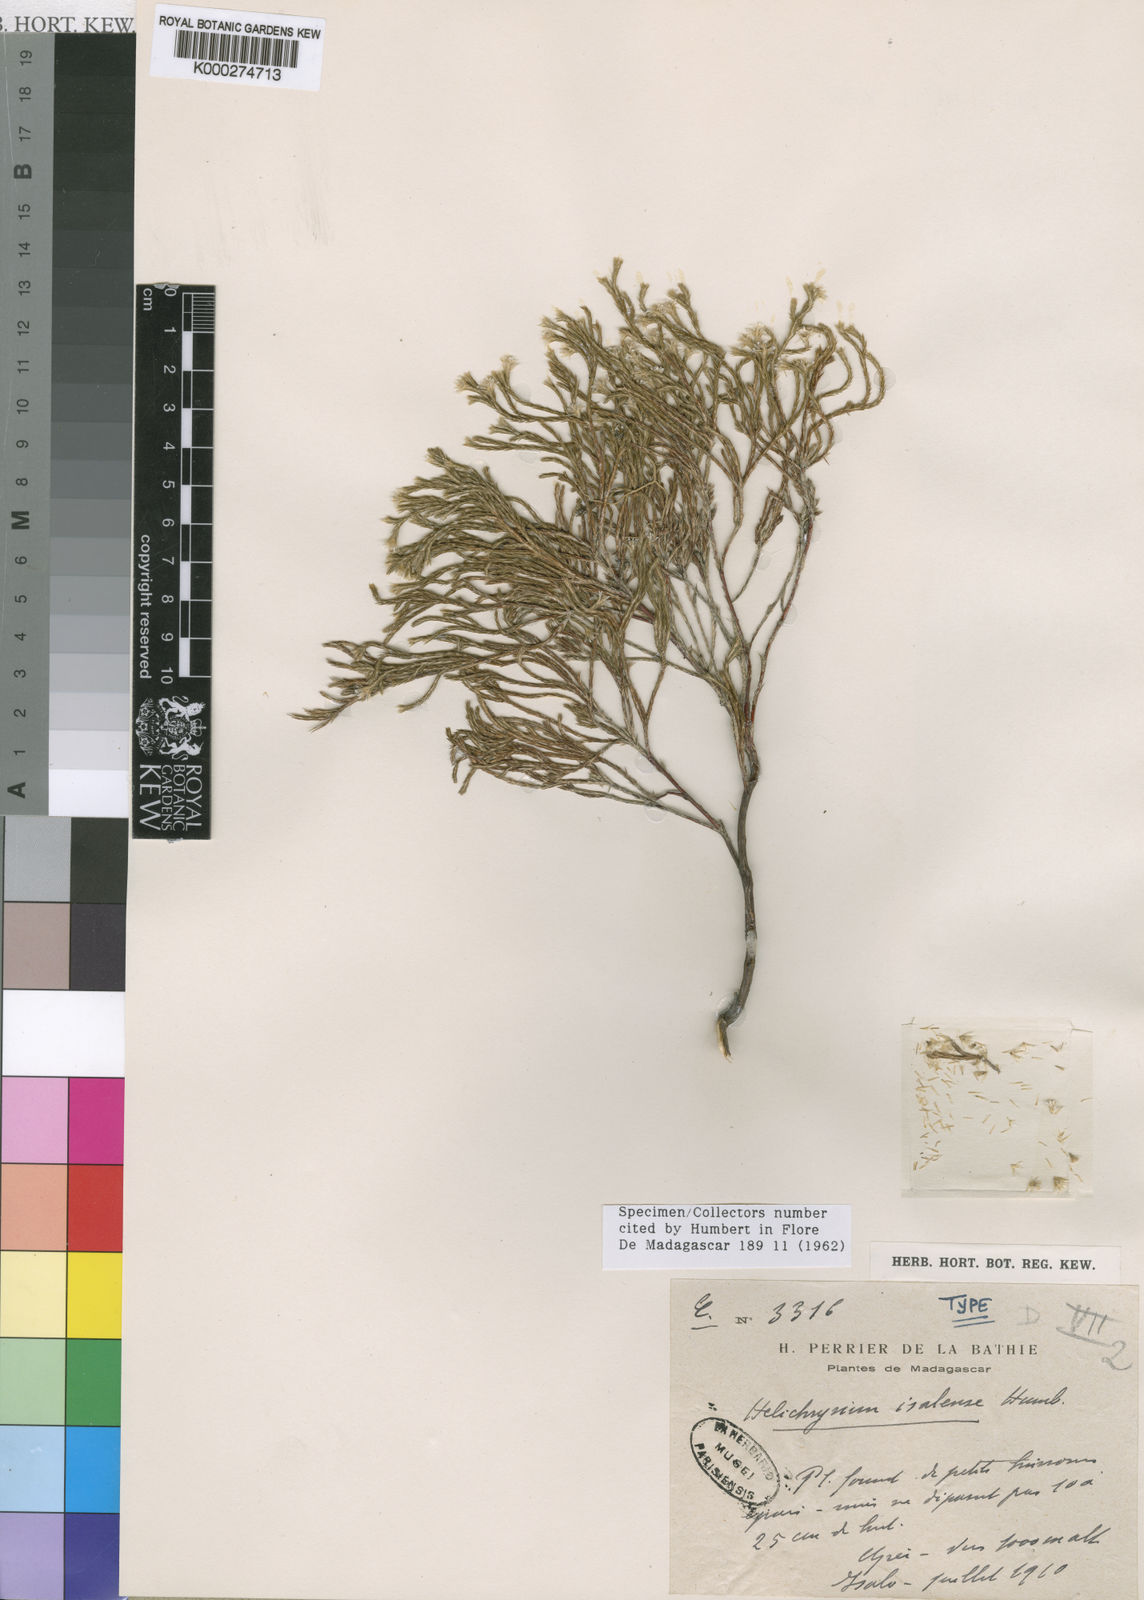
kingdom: Plantae
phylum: Tracheophyta
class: Magnoliopsida
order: Asterales
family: Asteraceae
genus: Helichrysum
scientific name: Helichrysum isalense
